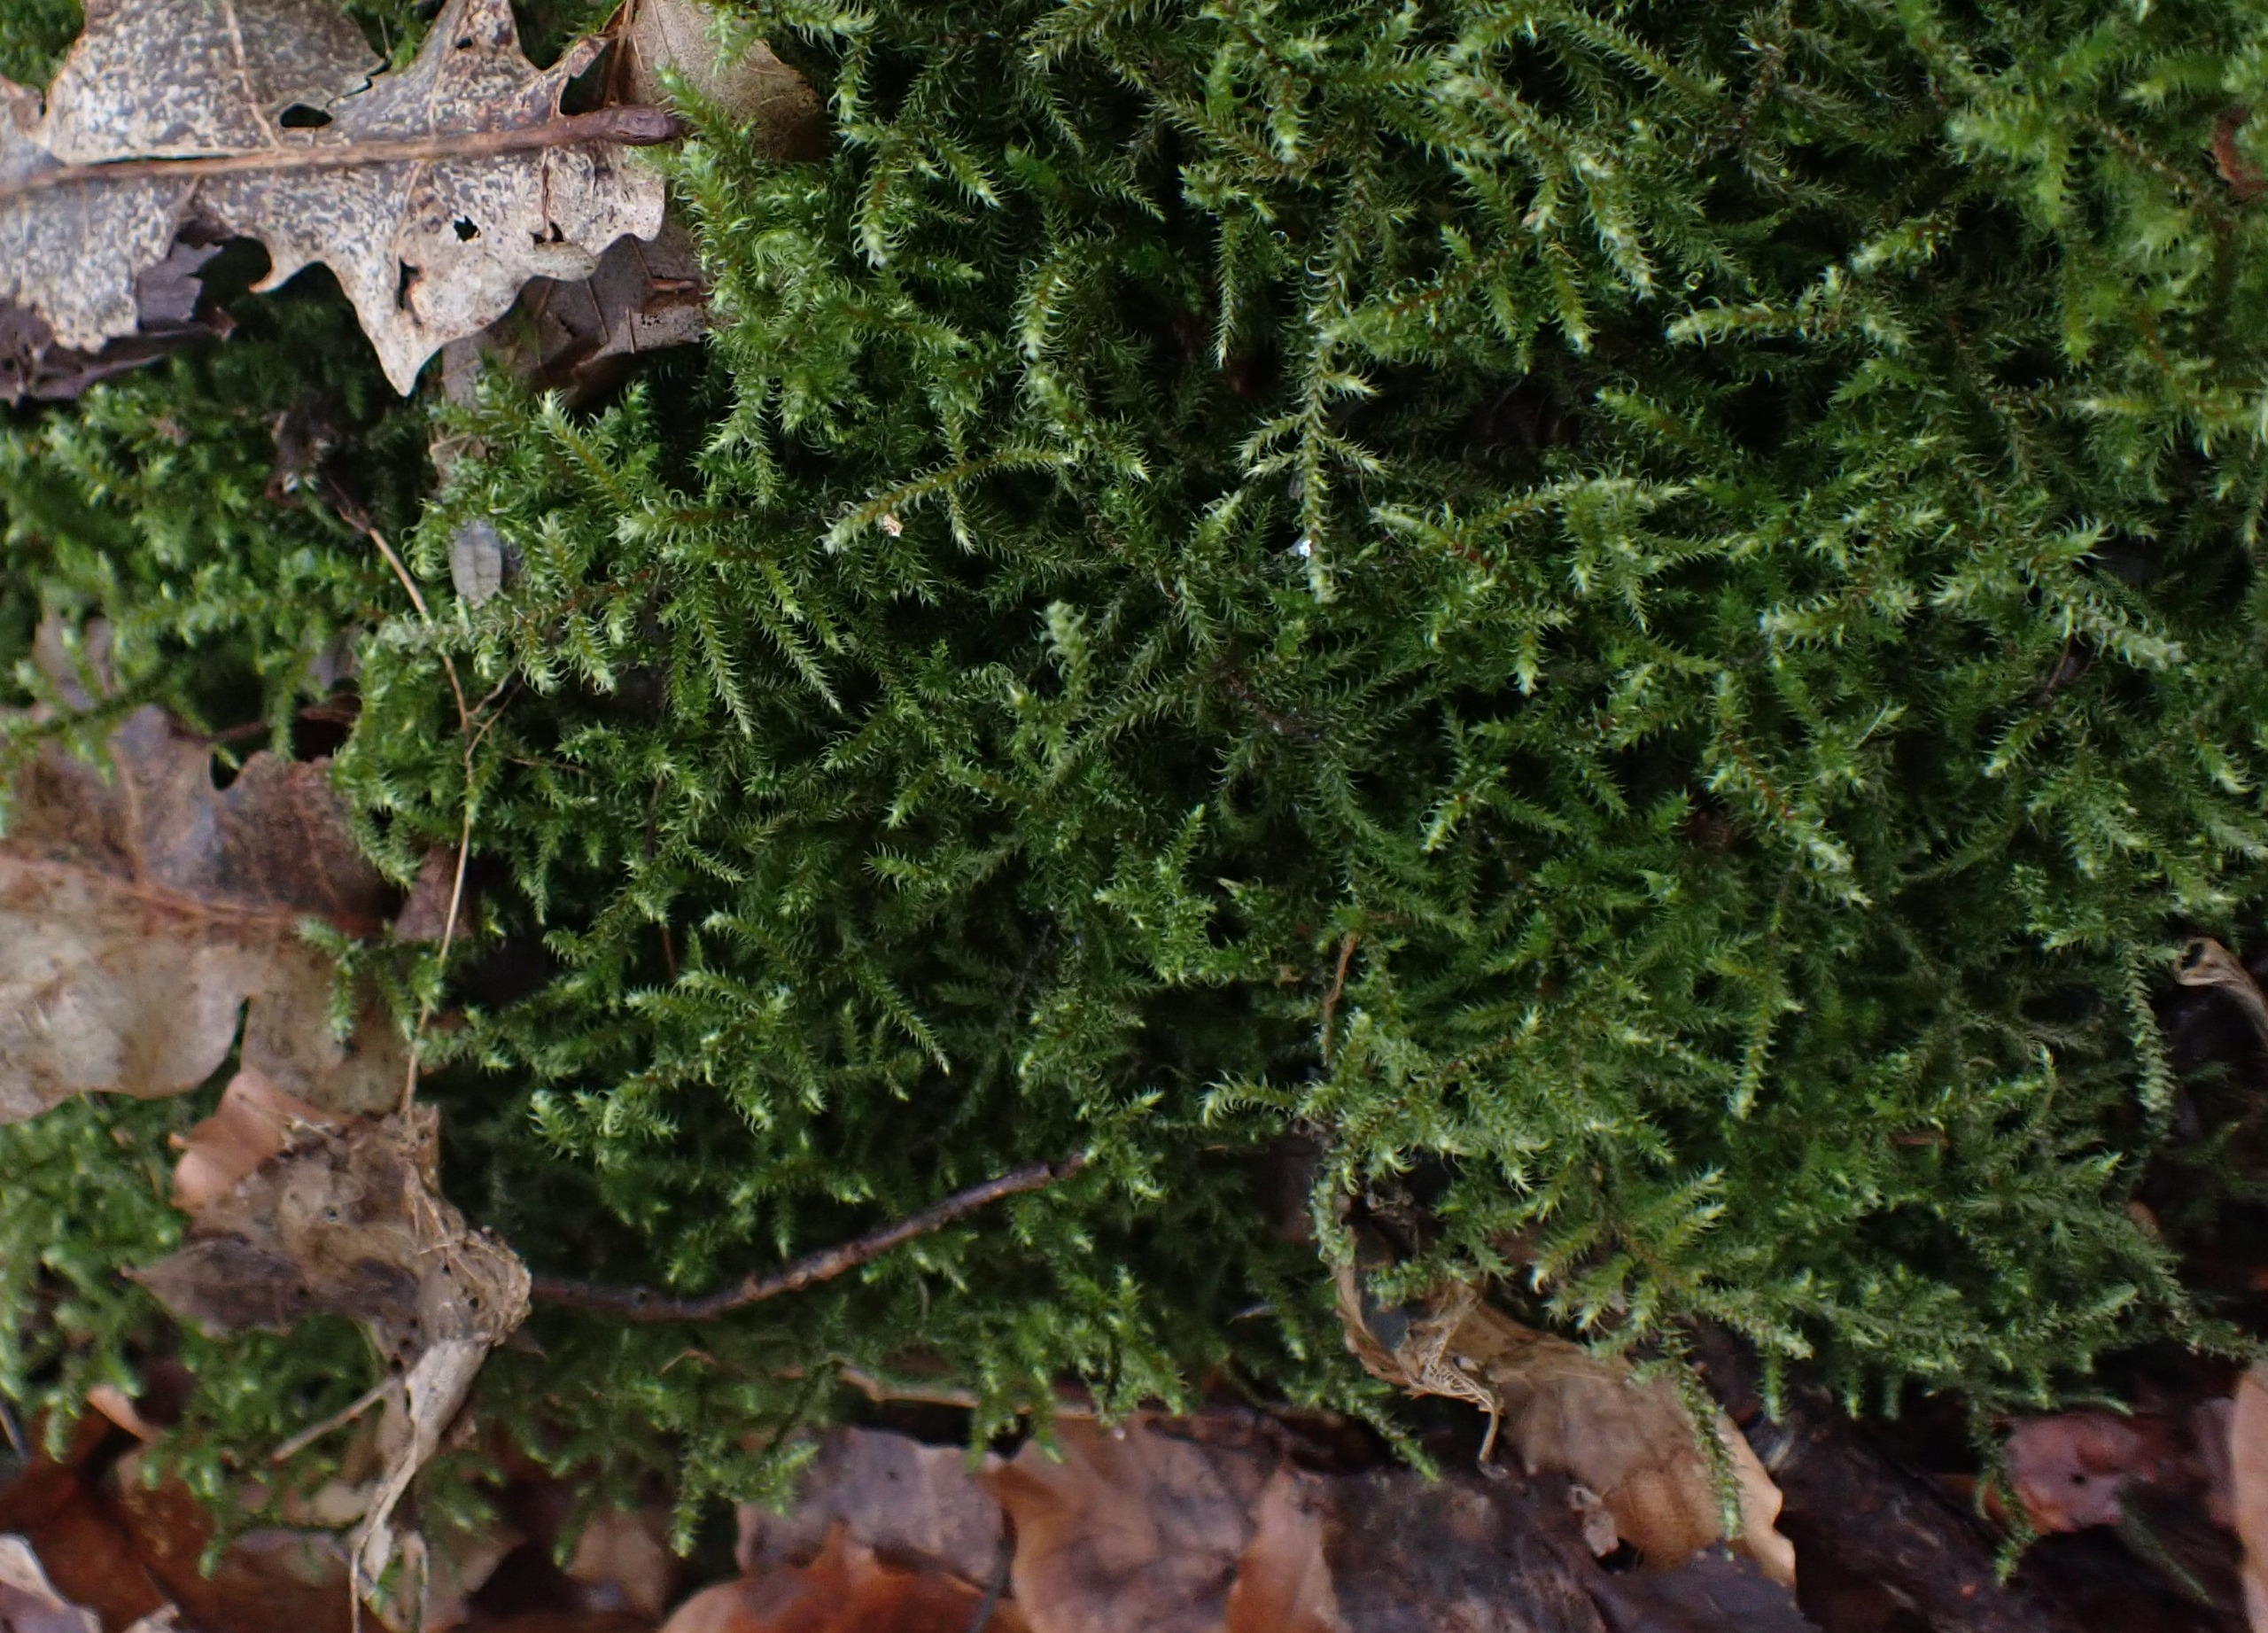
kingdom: Plantae
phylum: Bryophyta
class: Bryopsida
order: Hypnales
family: Hylocomiaceae
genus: Rhytidiadelphus
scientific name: Rhytidiadelphus loreus
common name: Ulvefod-kransemos
